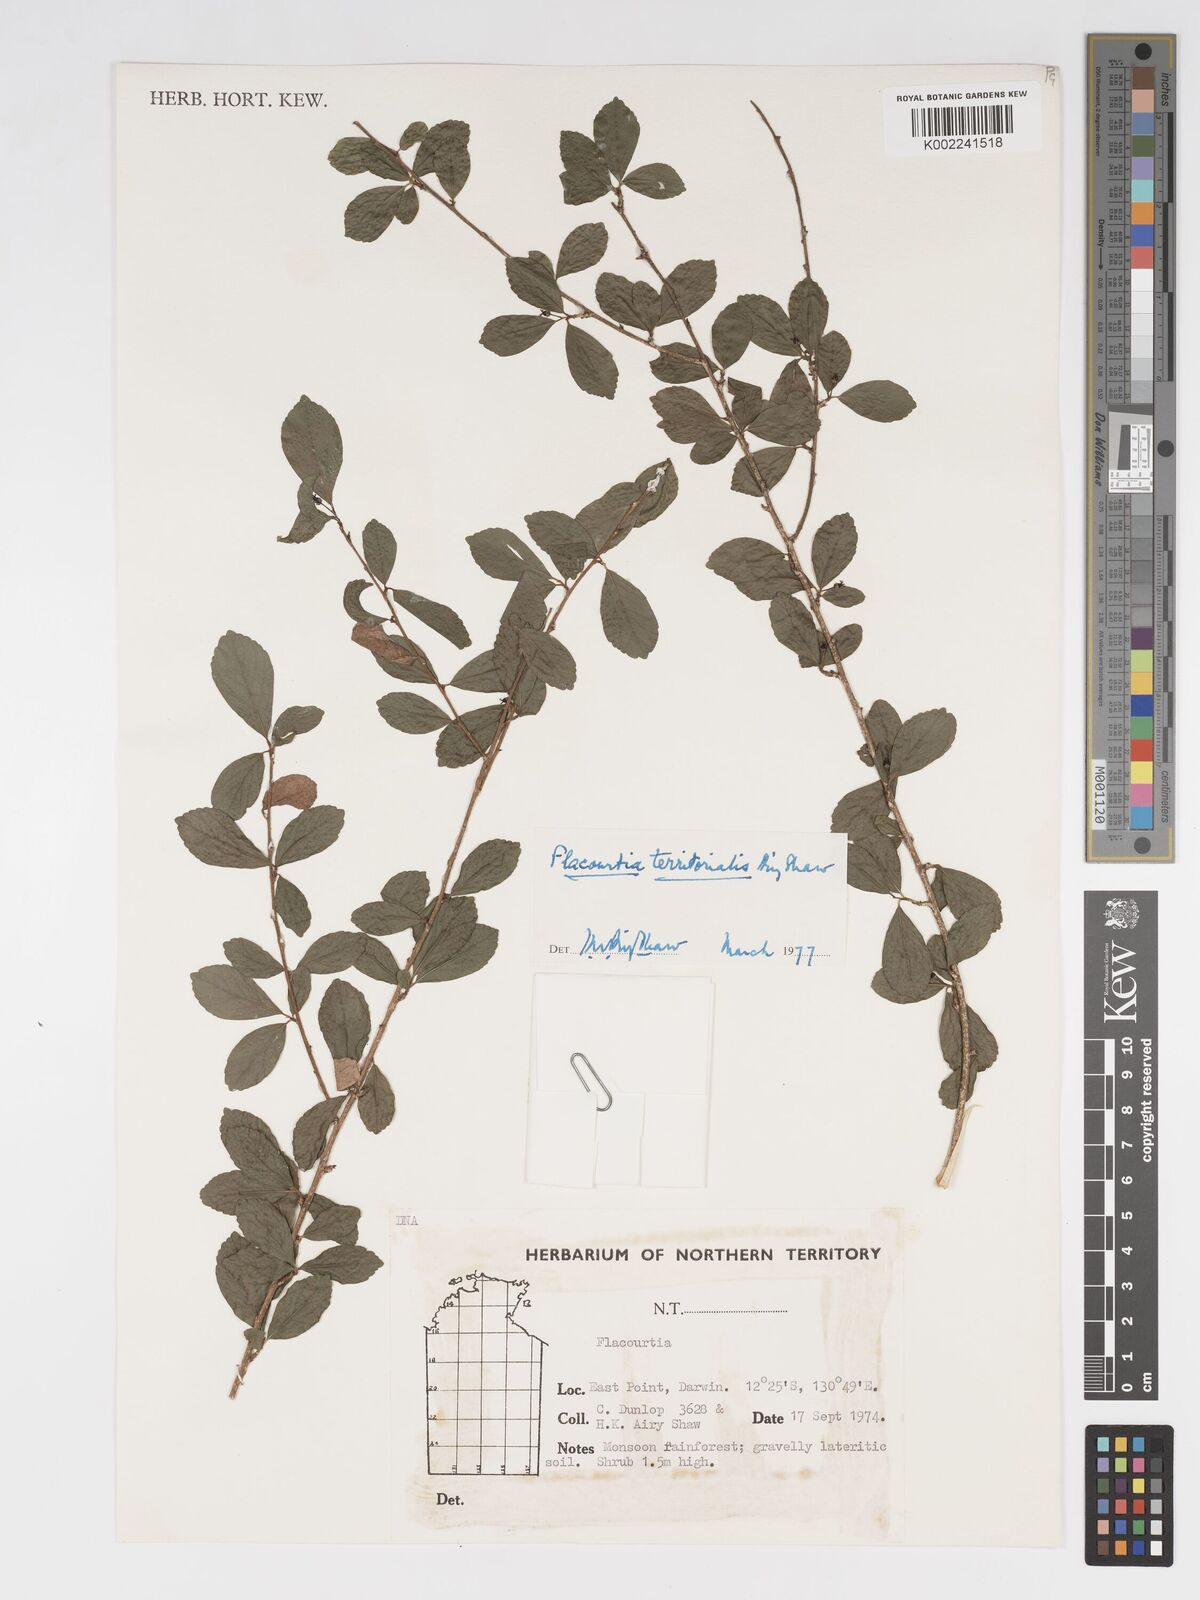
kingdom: Plantae
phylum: Tracheophyta
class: Magnoliopsida
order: Malpighiales
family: Salicaceae
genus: Flacourtia
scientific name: Flacourtia territorialis
